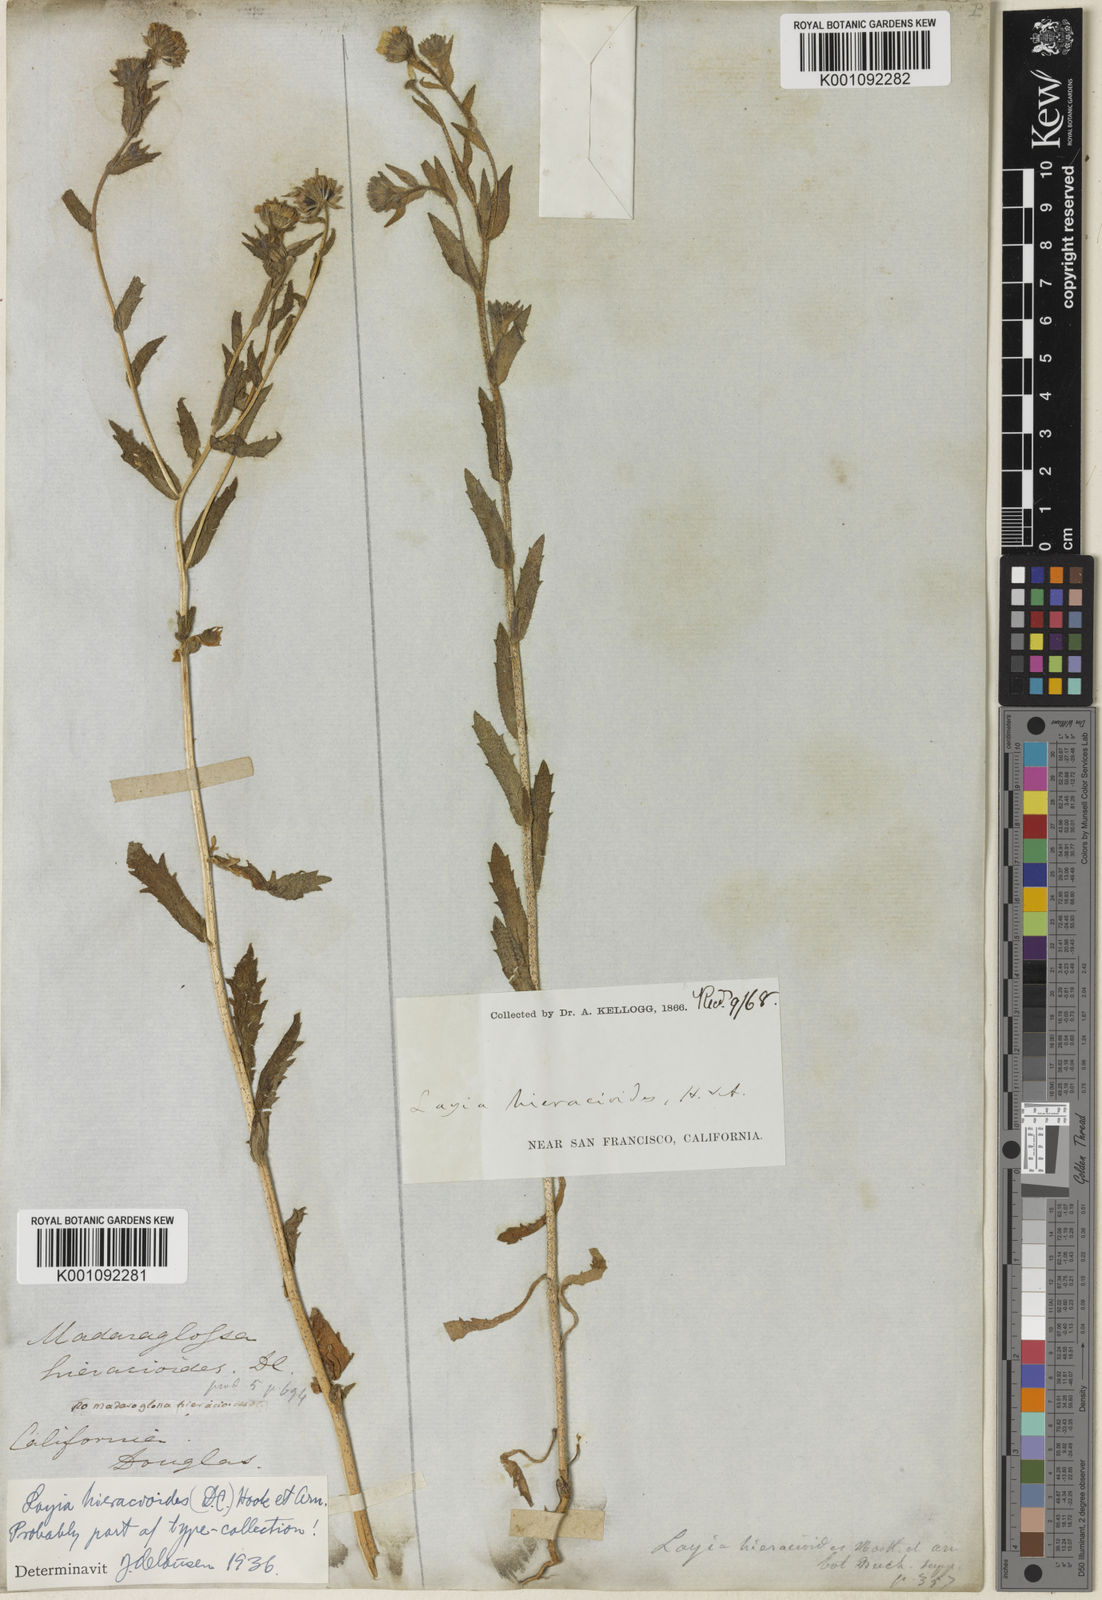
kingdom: Plantae
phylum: Tracheophyta
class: Magnoliopsida
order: Asterales
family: Asteraceae
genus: Layia
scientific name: Layia hieracioides
